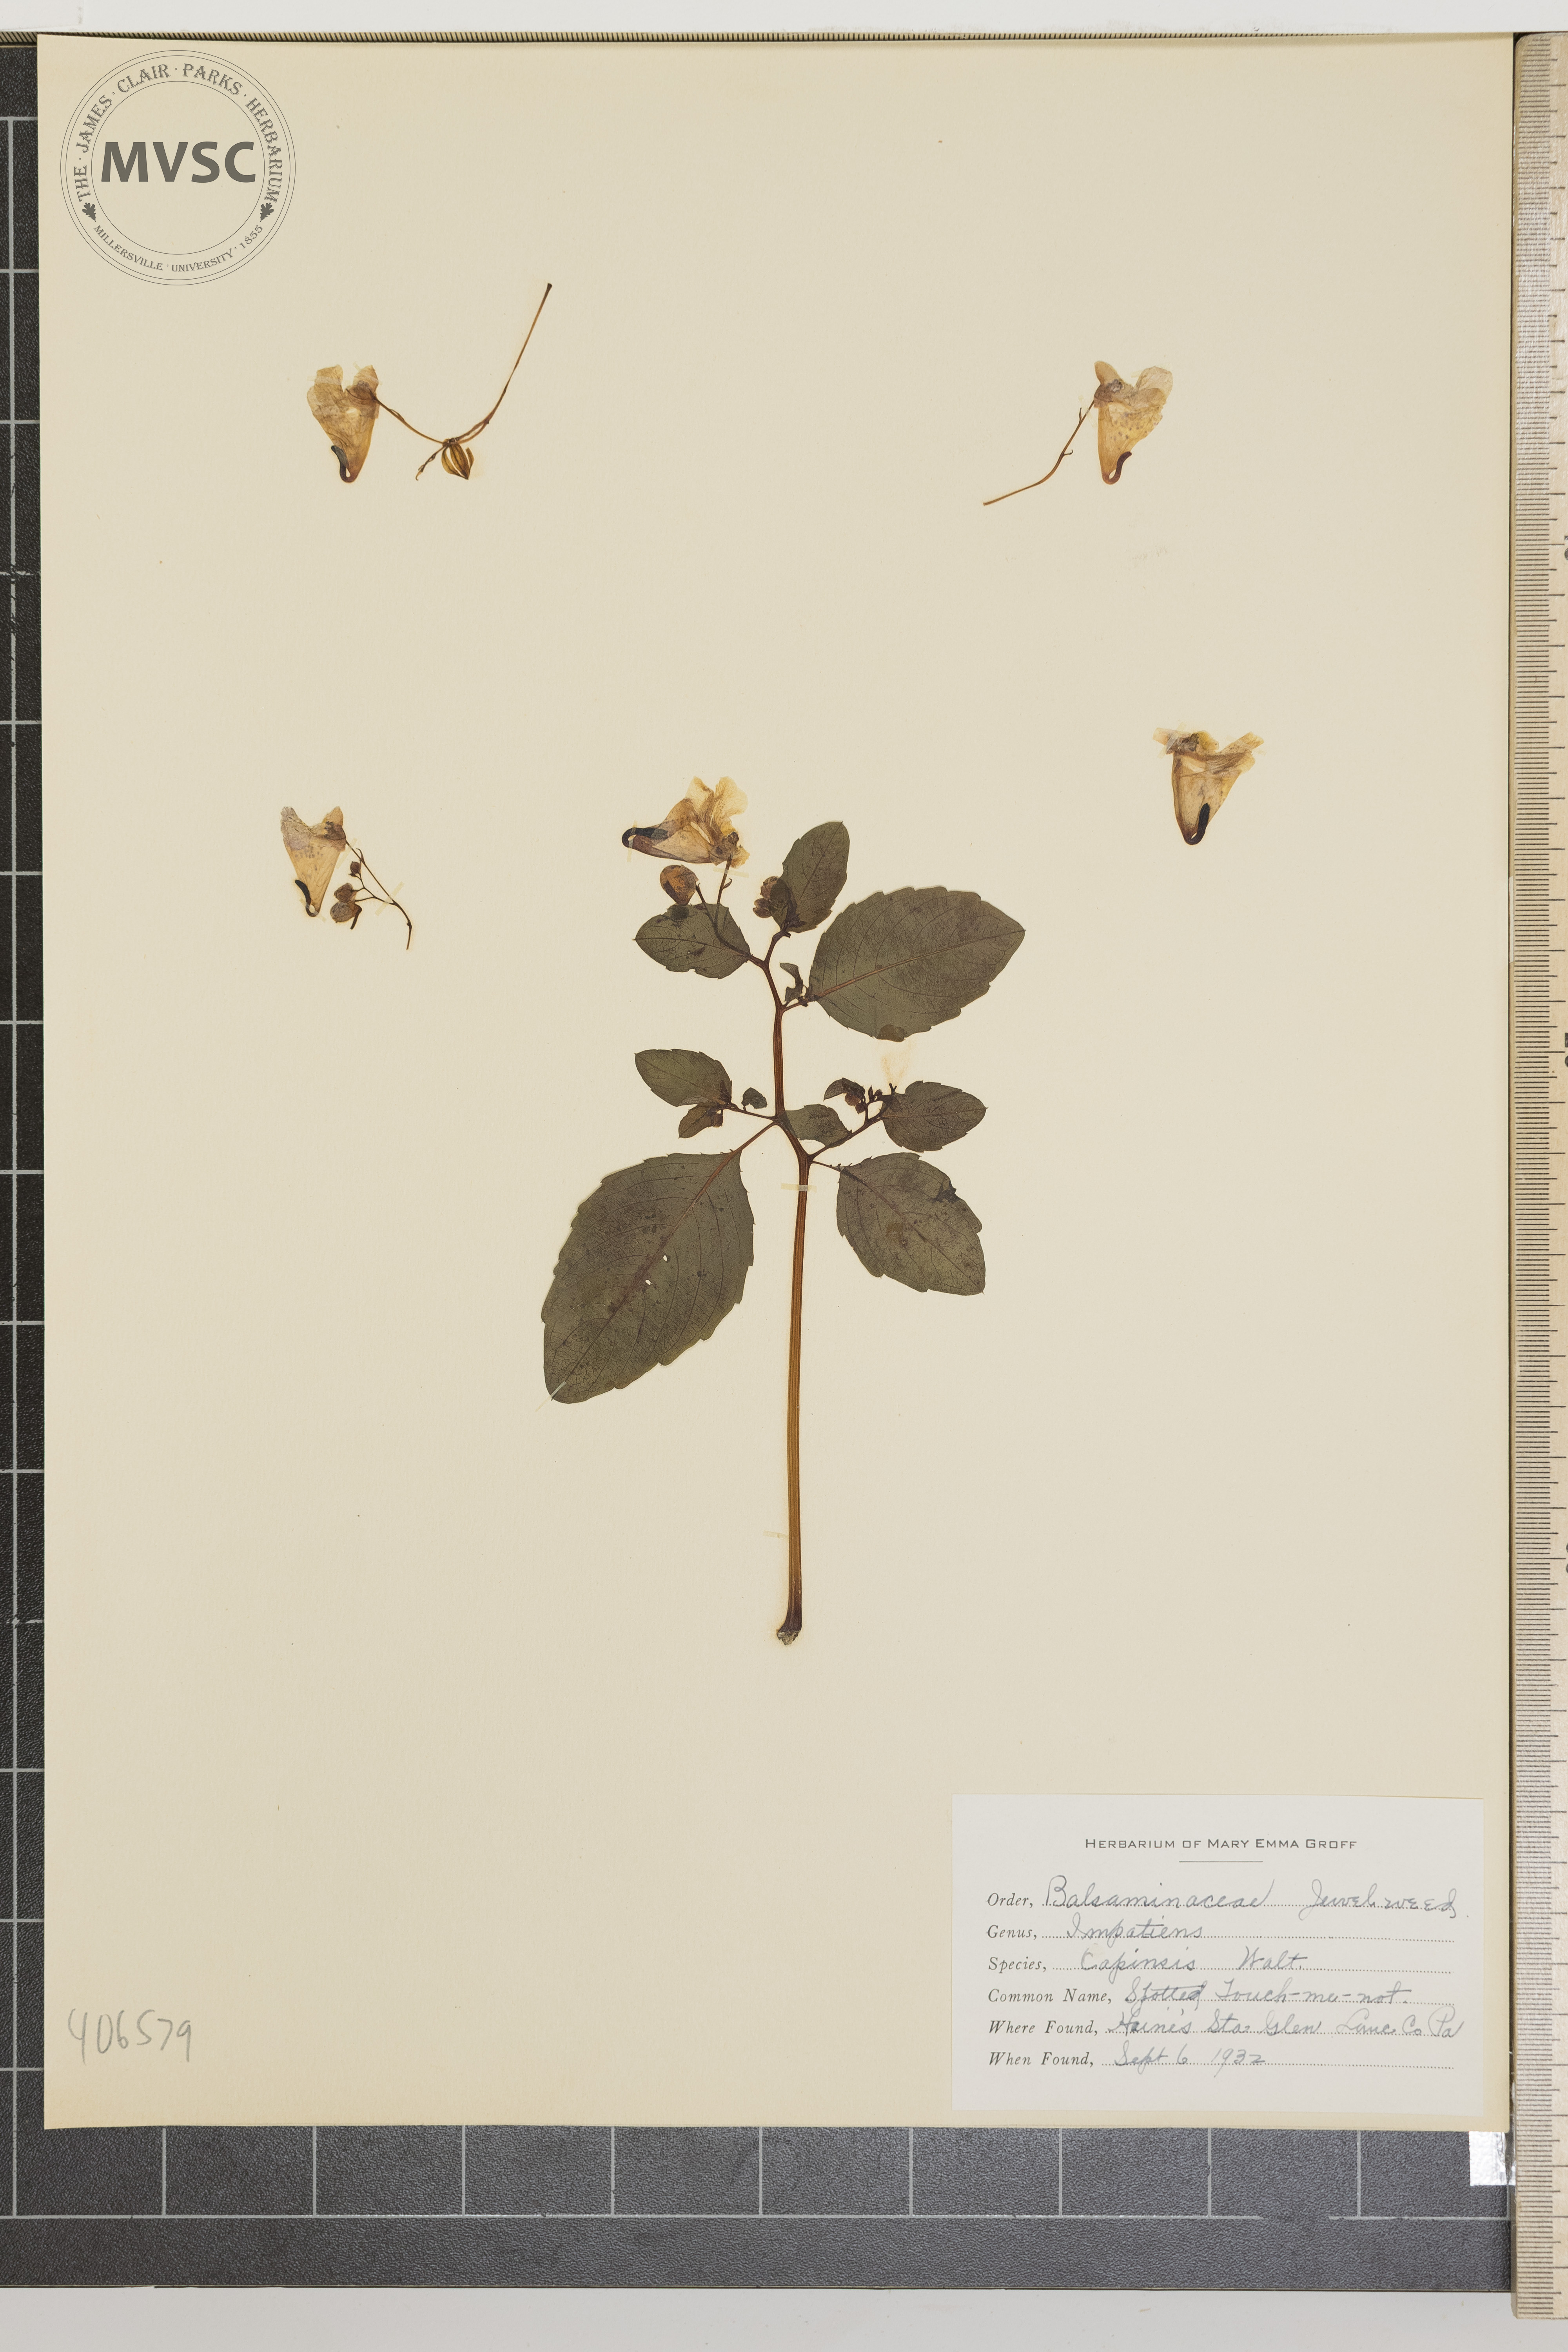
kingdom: Plantae
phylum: Tracheophyta
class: Magnoliopsida
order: Ericales
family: Balsaminaceae
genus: Impatiens
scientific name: Impatiens capensis
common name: Spotted Touch-me-not
